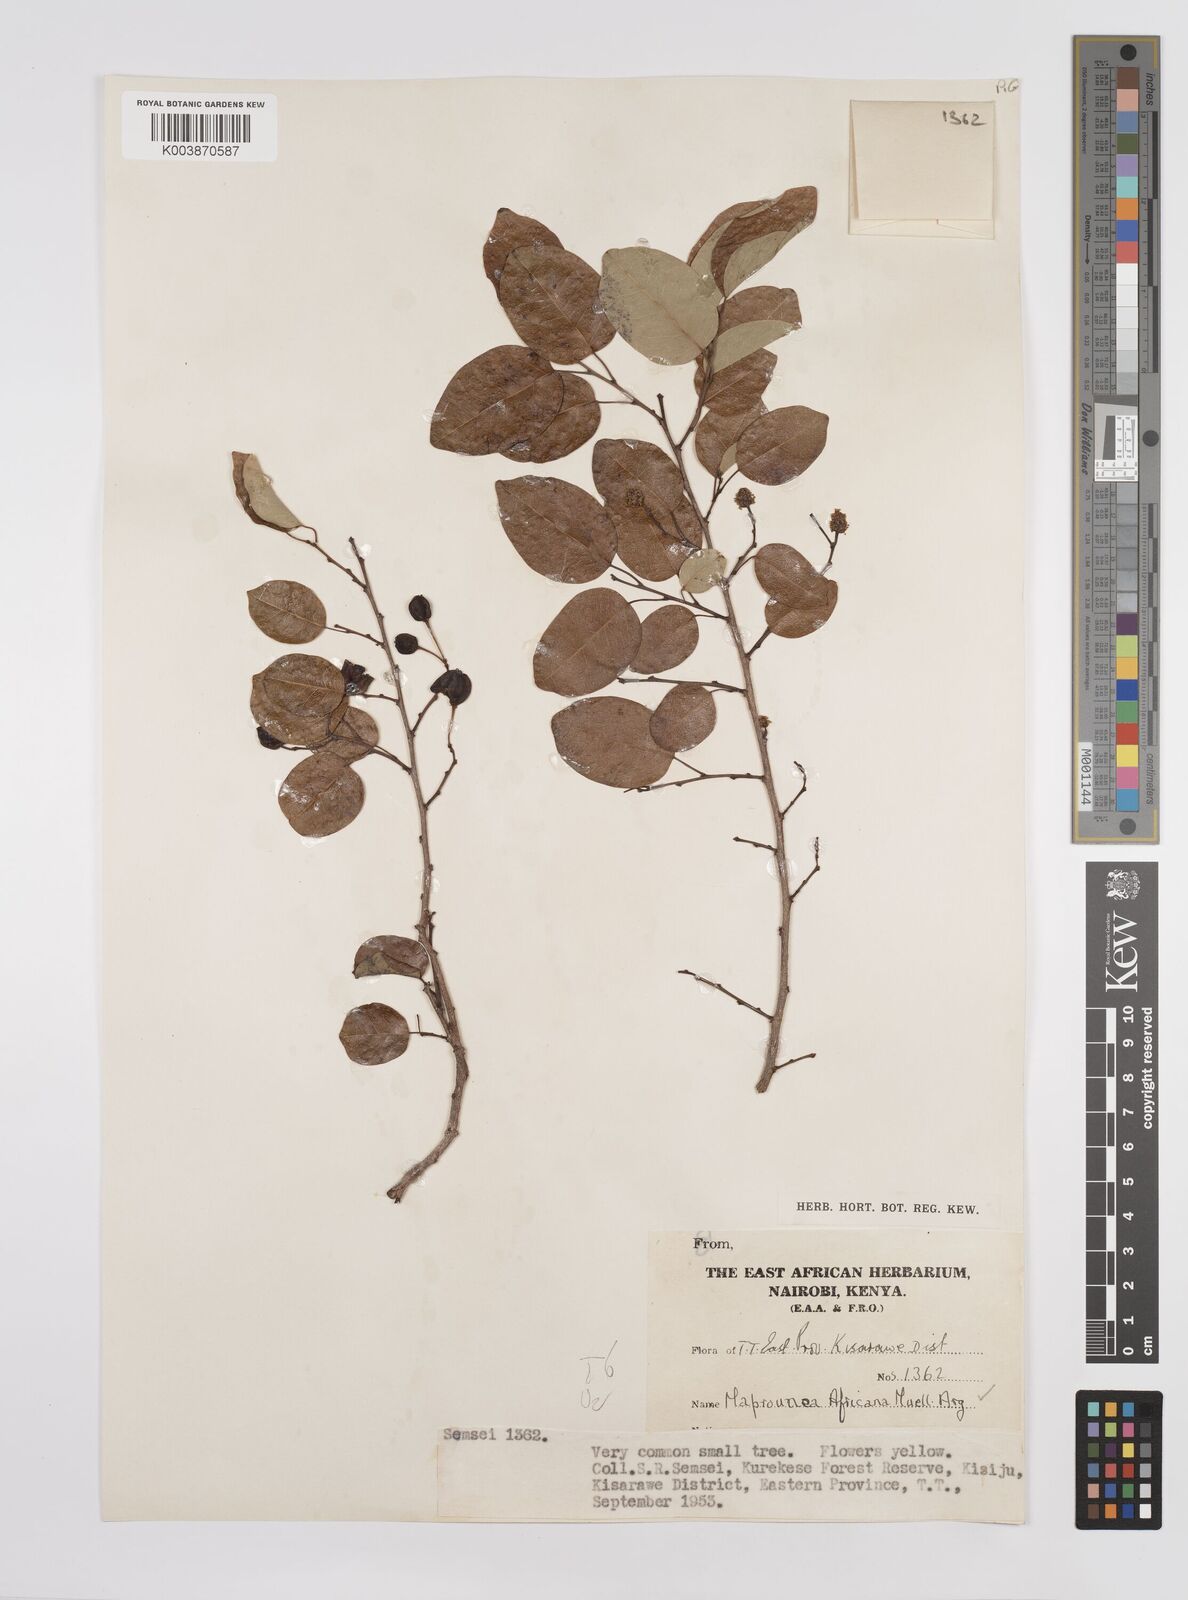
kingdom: Plantae
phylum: Tracheophyta
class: Magnoliopsida
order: Malpighiales
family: Euphorbiaceae
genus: Maprounea
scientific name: Maprounea africana
